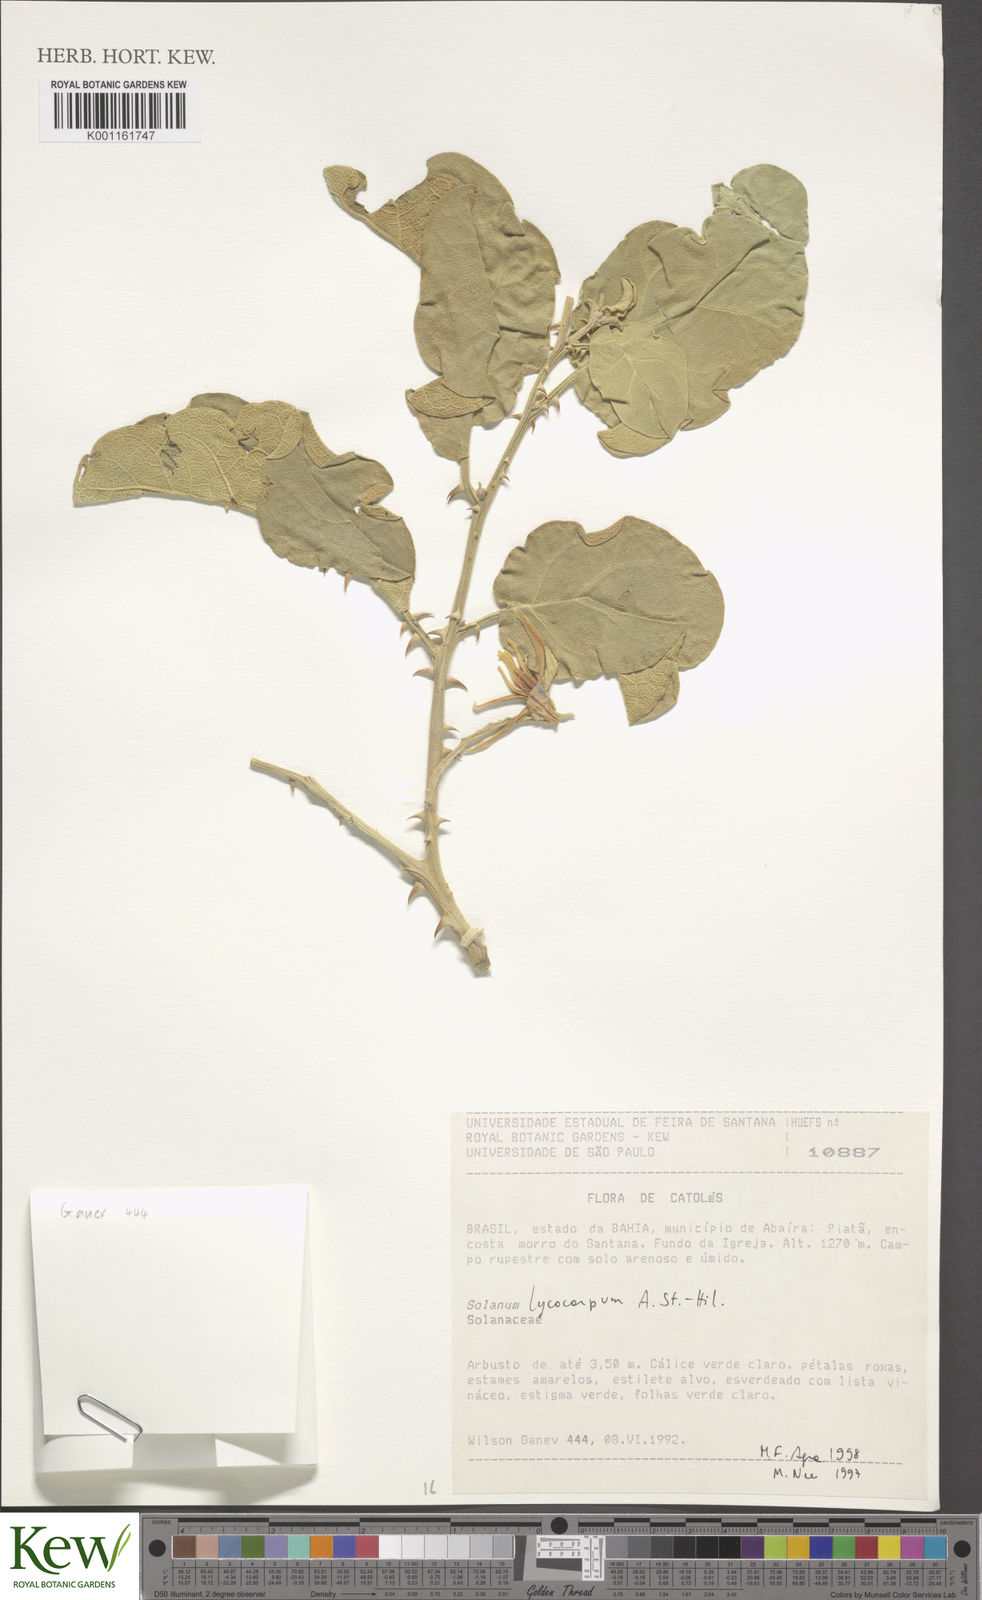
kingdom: Plantae
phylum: Tracheophyta
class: Magnoliopsida
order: Solanales
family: Solanaceae
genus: Solanum
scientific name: Solanum lycocarpum
